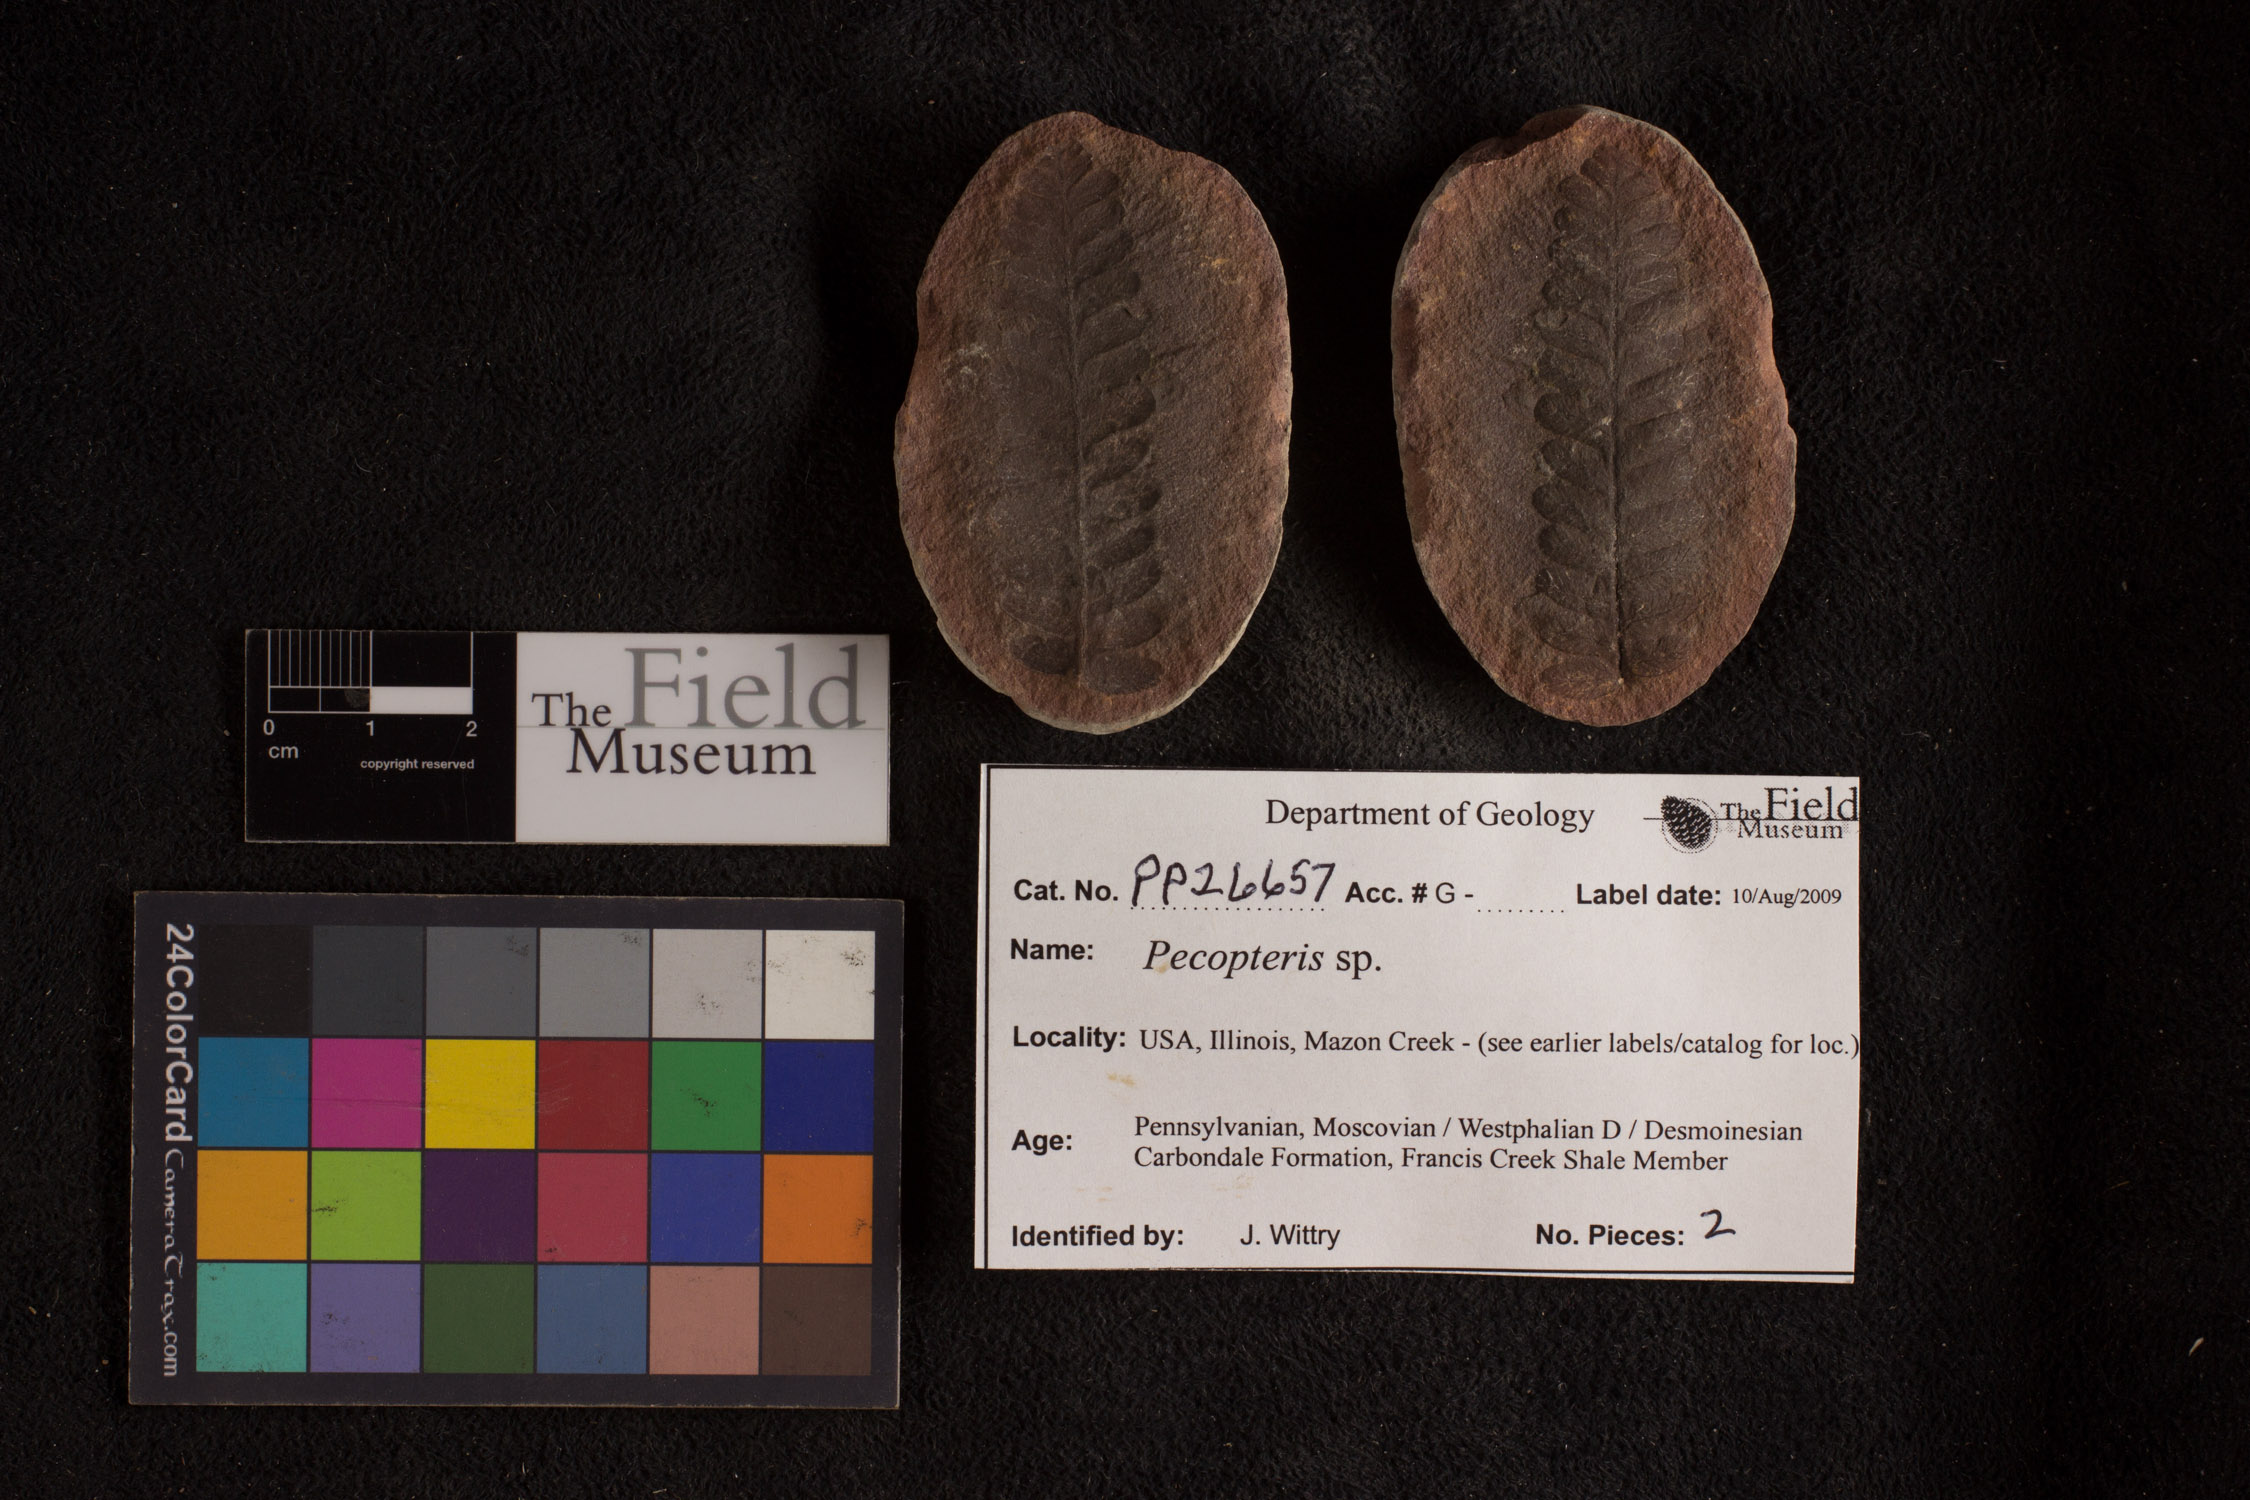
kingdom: Plantae
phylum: Tracheophyta
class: Polypodiopsida
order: Marattiales
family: Asterothecaceae
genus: Pecopteris
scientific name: Pecopteris
